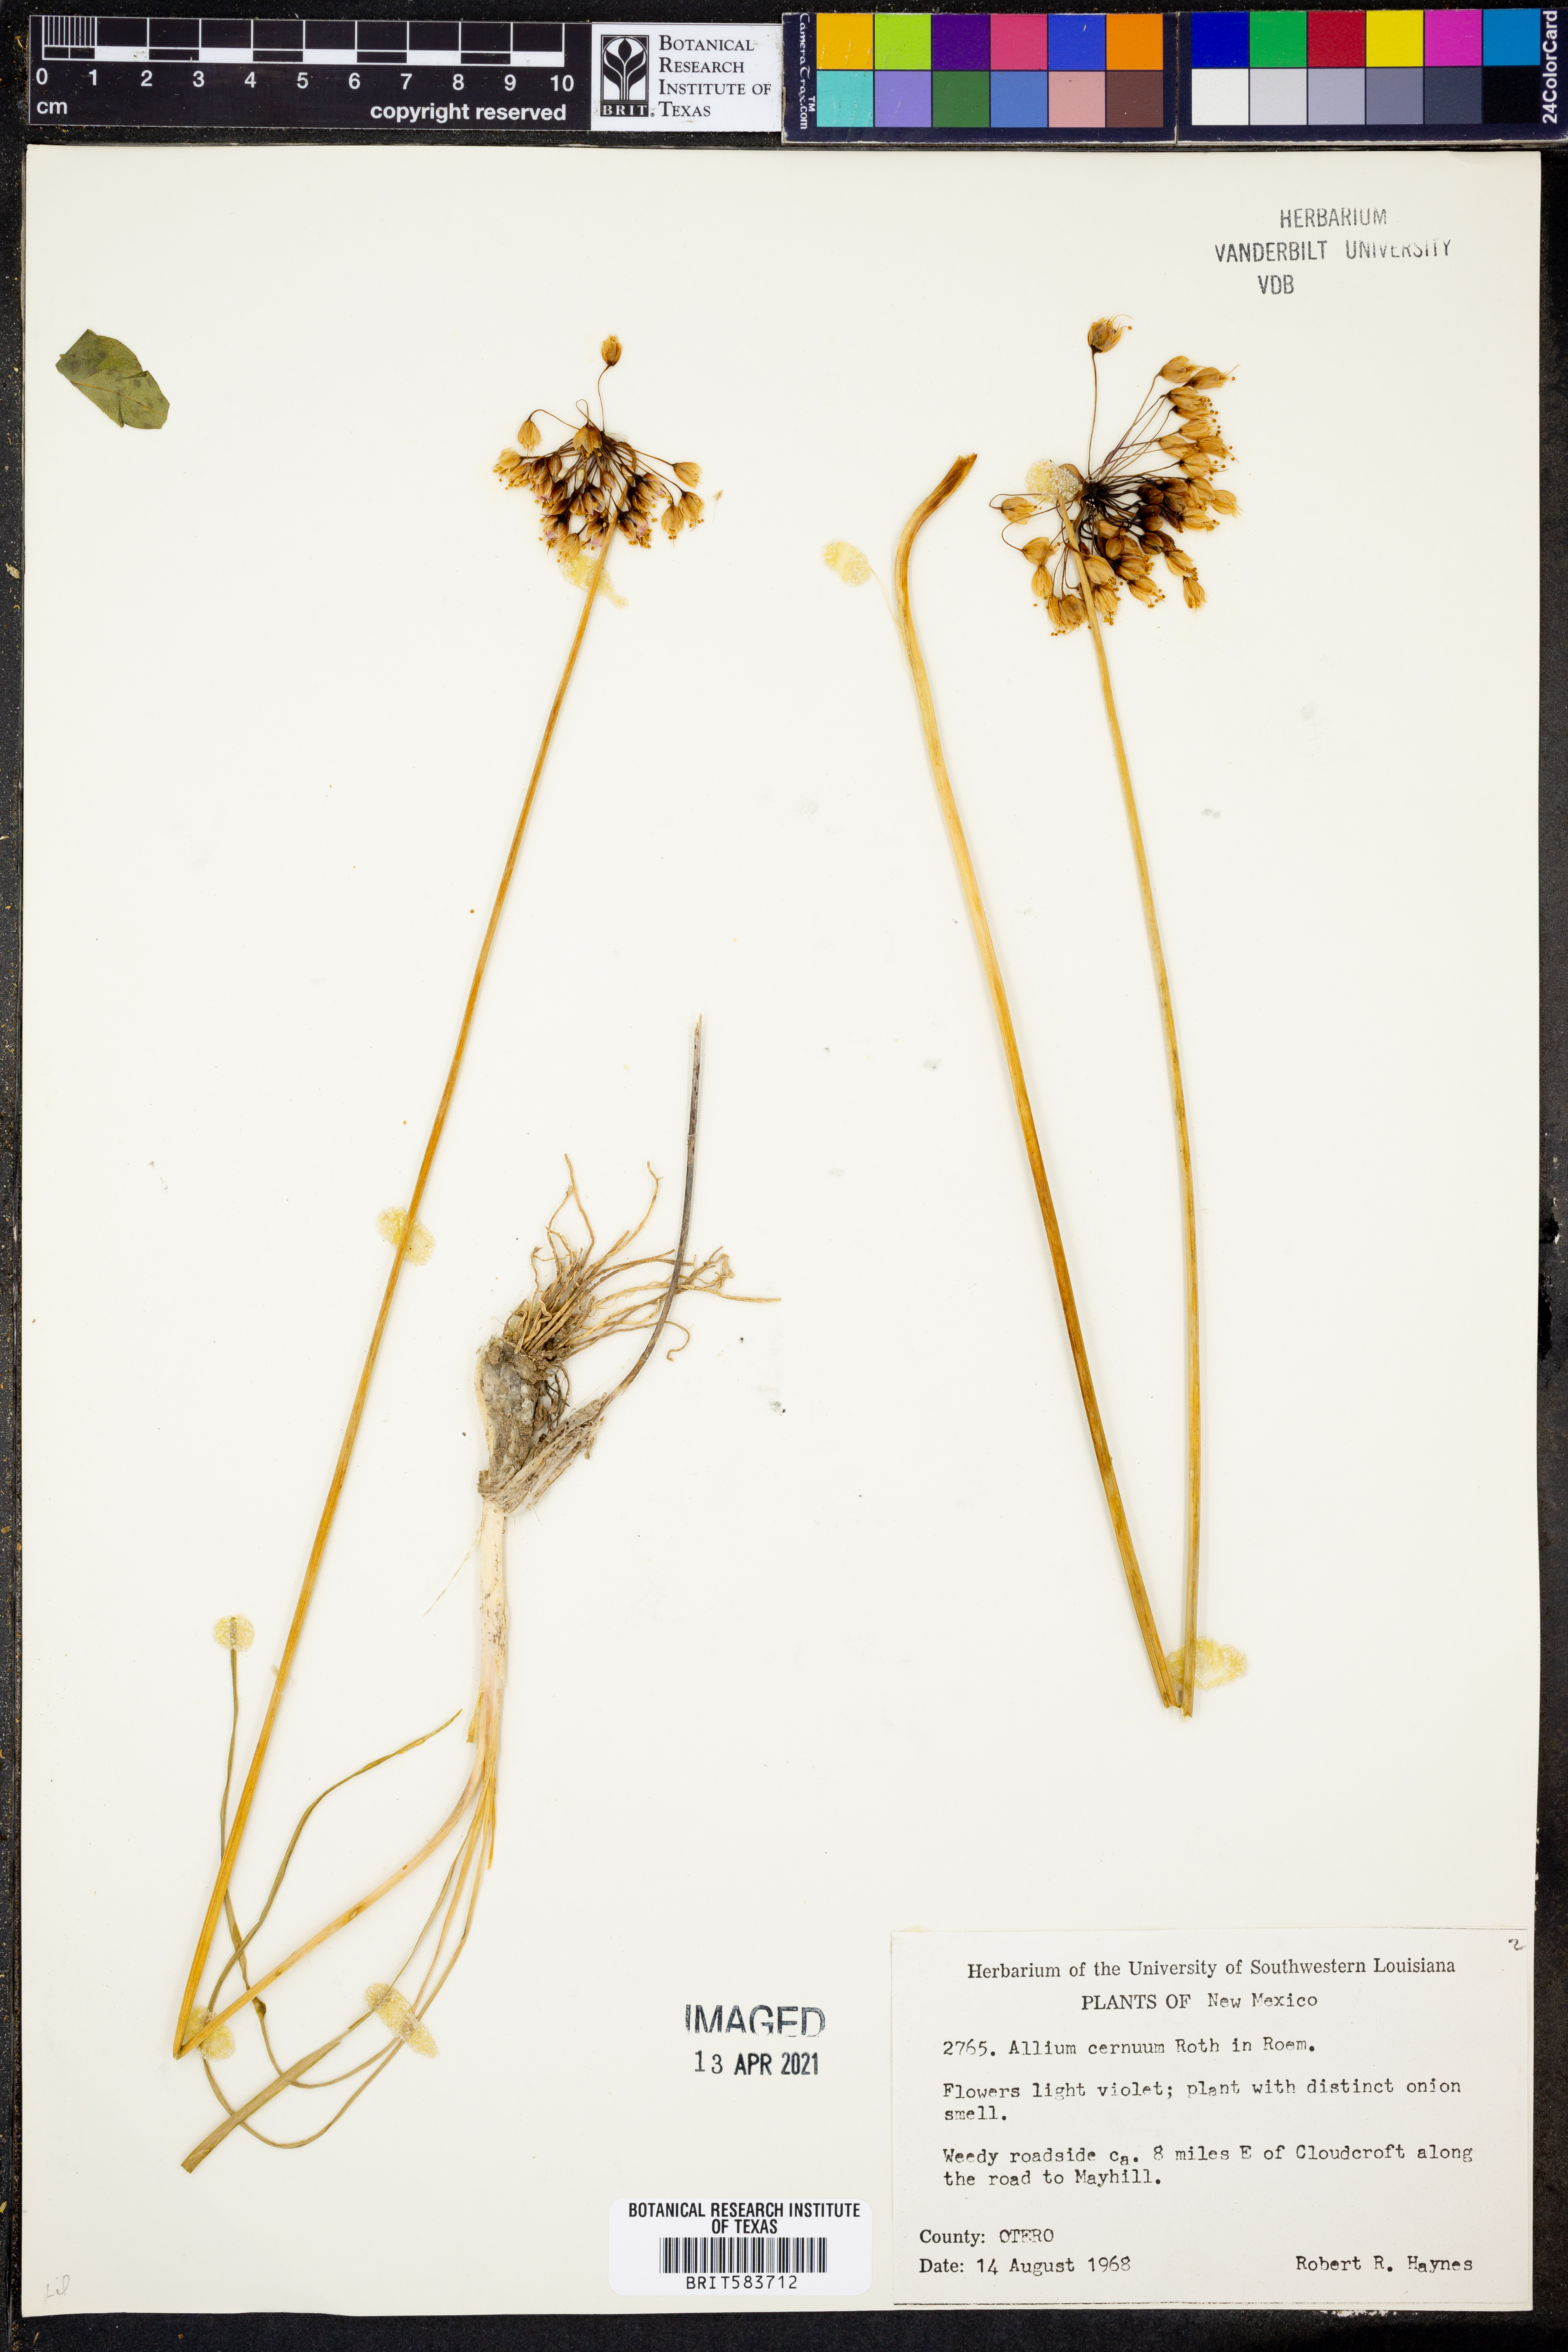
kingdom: Plantae
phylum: Tracheophyta
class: Liliopsida
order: Asparagales
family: Amaryllidaceae
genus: Allium
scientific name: Allium cernuum
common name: Nodding onion
